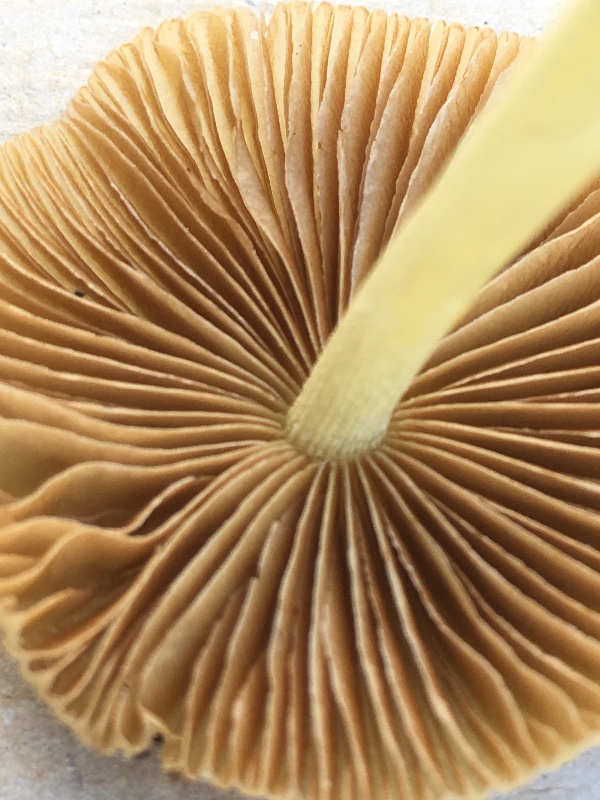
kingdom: Fungi
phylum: Basidiomycota
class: Agaricomycetes
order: Agaricales
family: Bolbitiaceae
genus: Bolbitius
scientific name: Bolbitius titubans
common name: almindelig gulhat
